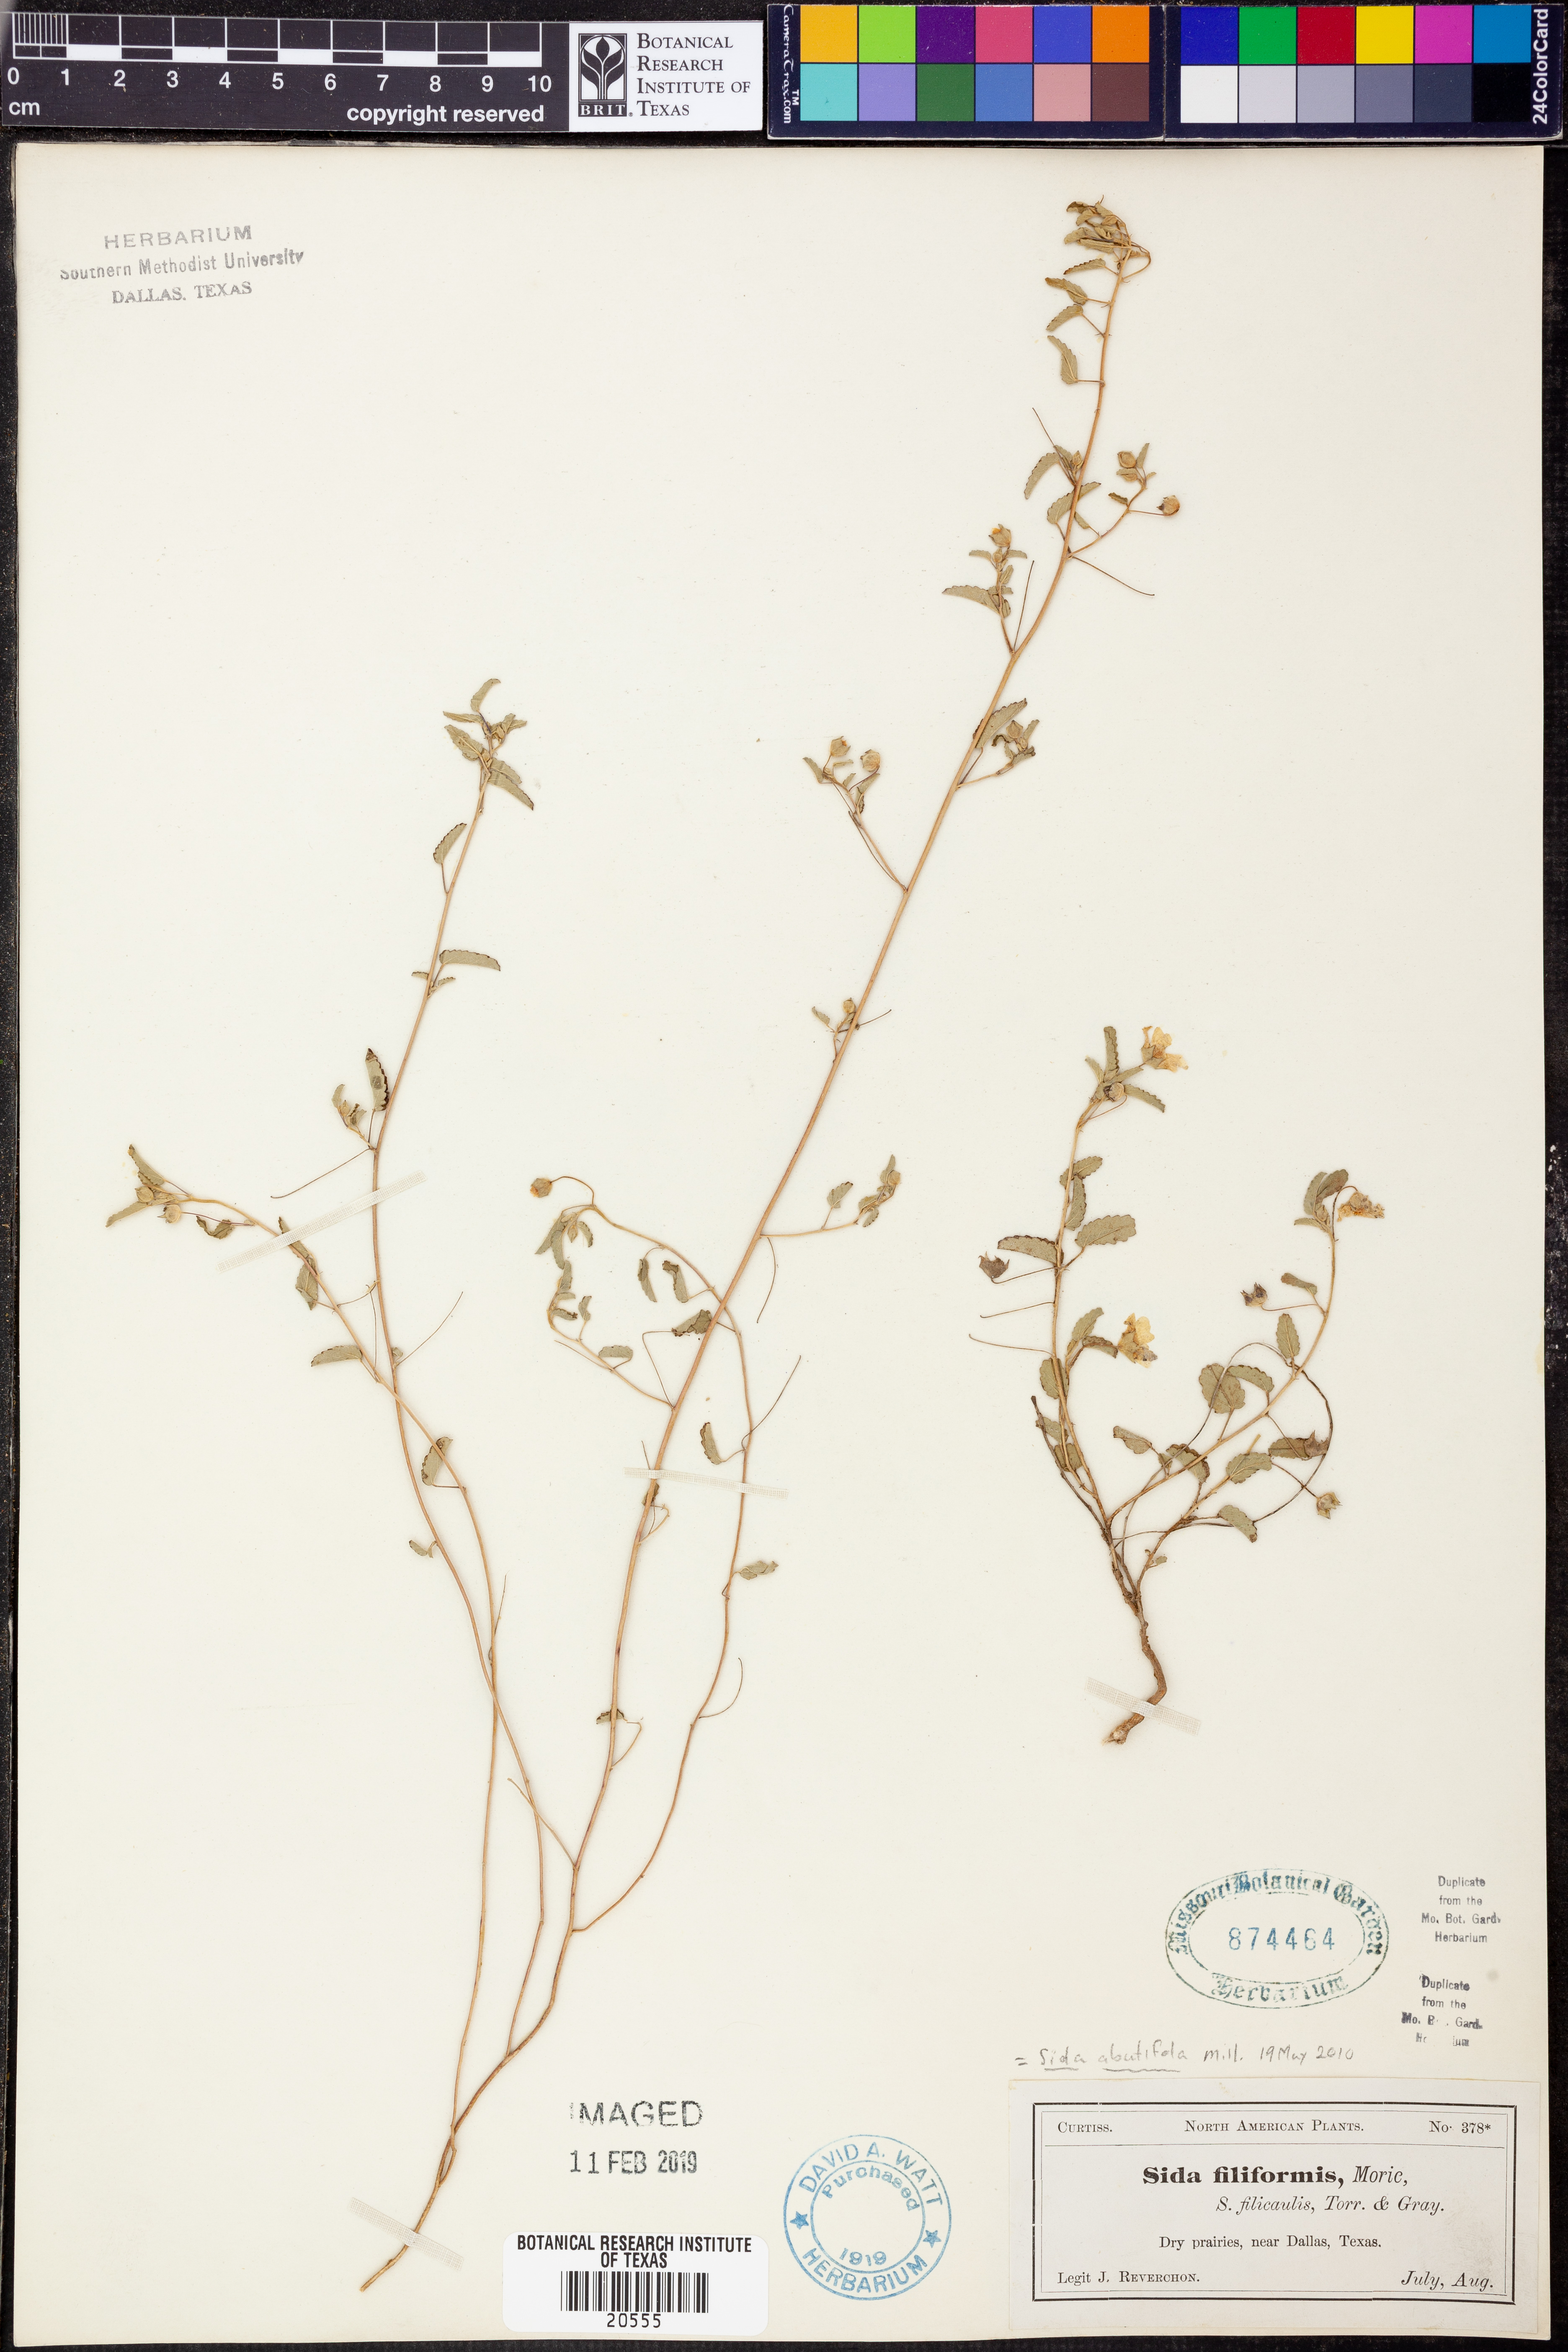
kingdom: Plantae
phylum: Tracheophyta
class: Magnoliopsida
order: Malvales
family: Malvaceae
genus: Sida
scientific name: Sida abutifolia
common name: Spreading fantails
